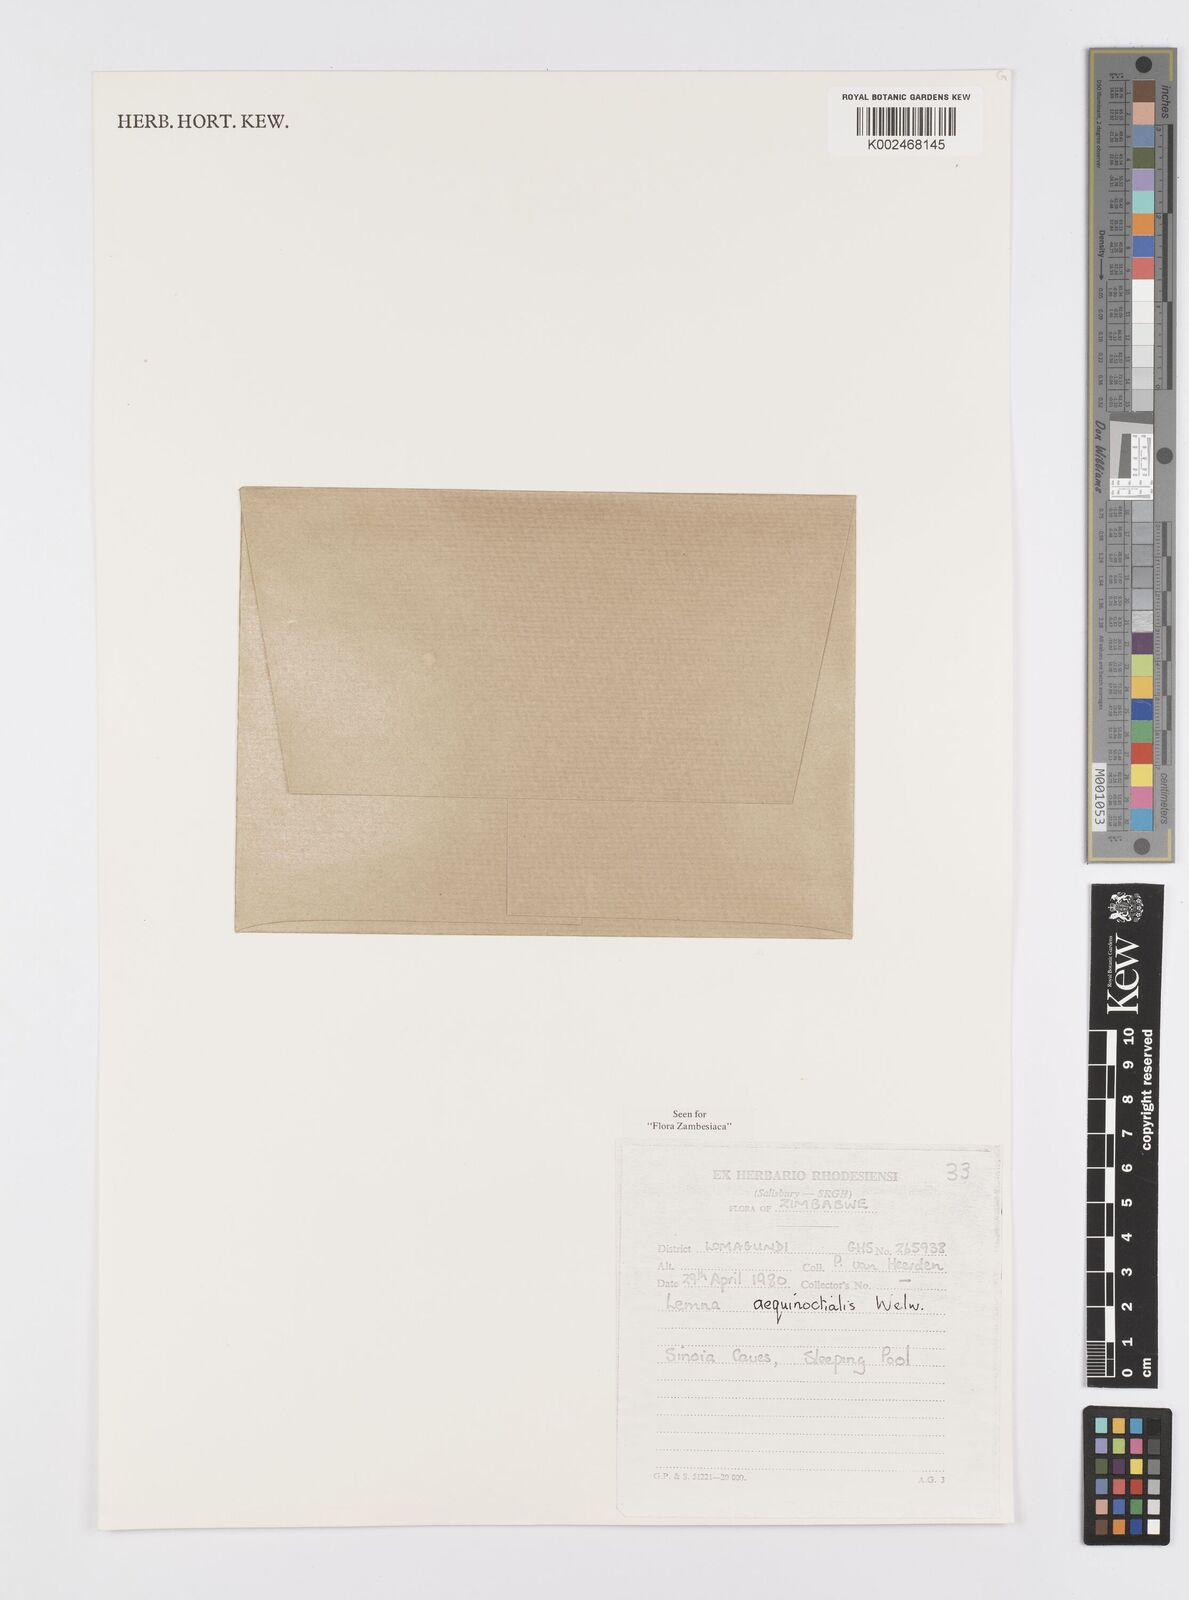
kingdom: Plantae
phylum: Tracheophyta
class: Liliopsida
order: Alismatales
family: Araceae
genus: Lemna
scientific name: Lemna aequinoctialis
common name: Duckweed
